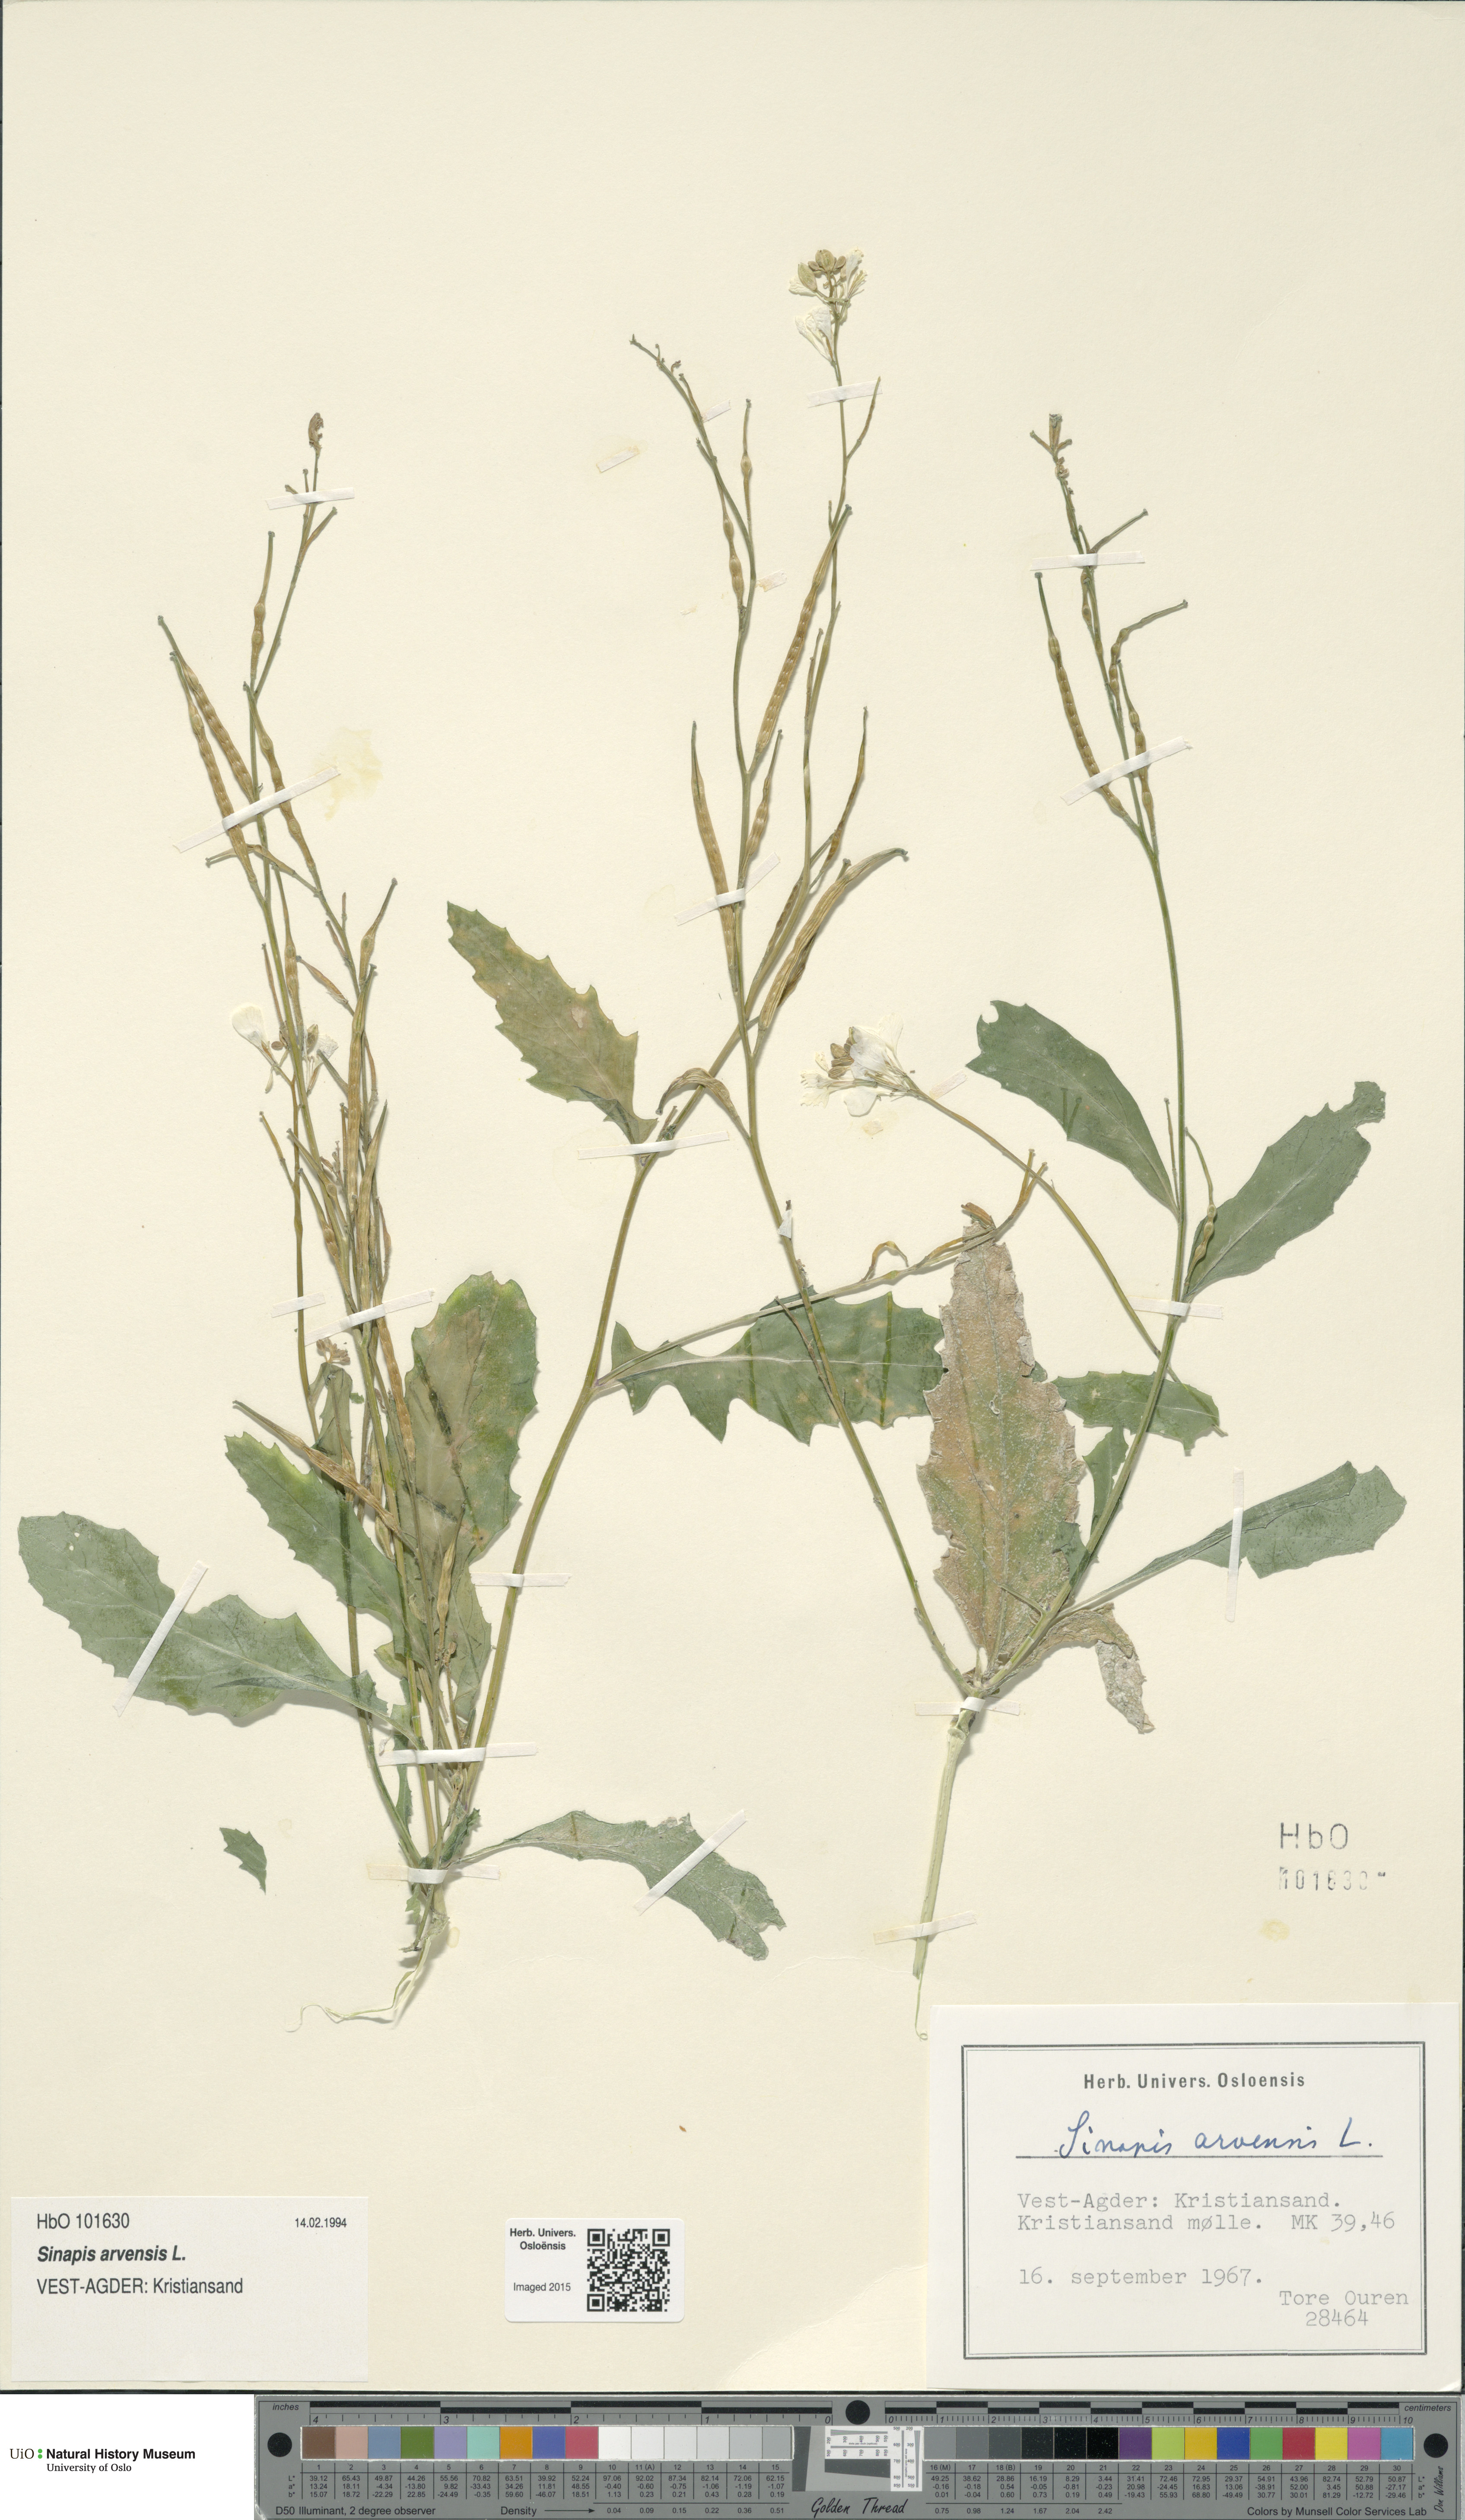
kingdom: Plantae
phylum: Tracheophyta
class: Magnoliopsida
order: Brassicales
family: Brassicaceae
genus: Sinapis
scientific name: Sinapis arvensis
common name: Charlock
